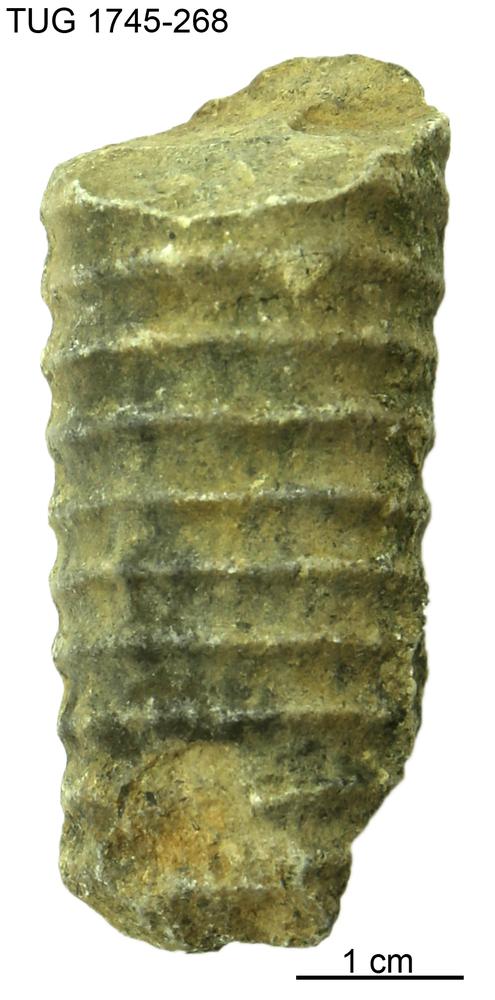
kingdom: Animalia
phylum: Mollusca
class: Cephalopoda
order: Orthocerida
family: Dawsonoceratidae
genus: Palaeodawsonocerina
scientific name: Palaeodawsonocerina Spyroceras senckenbergi
